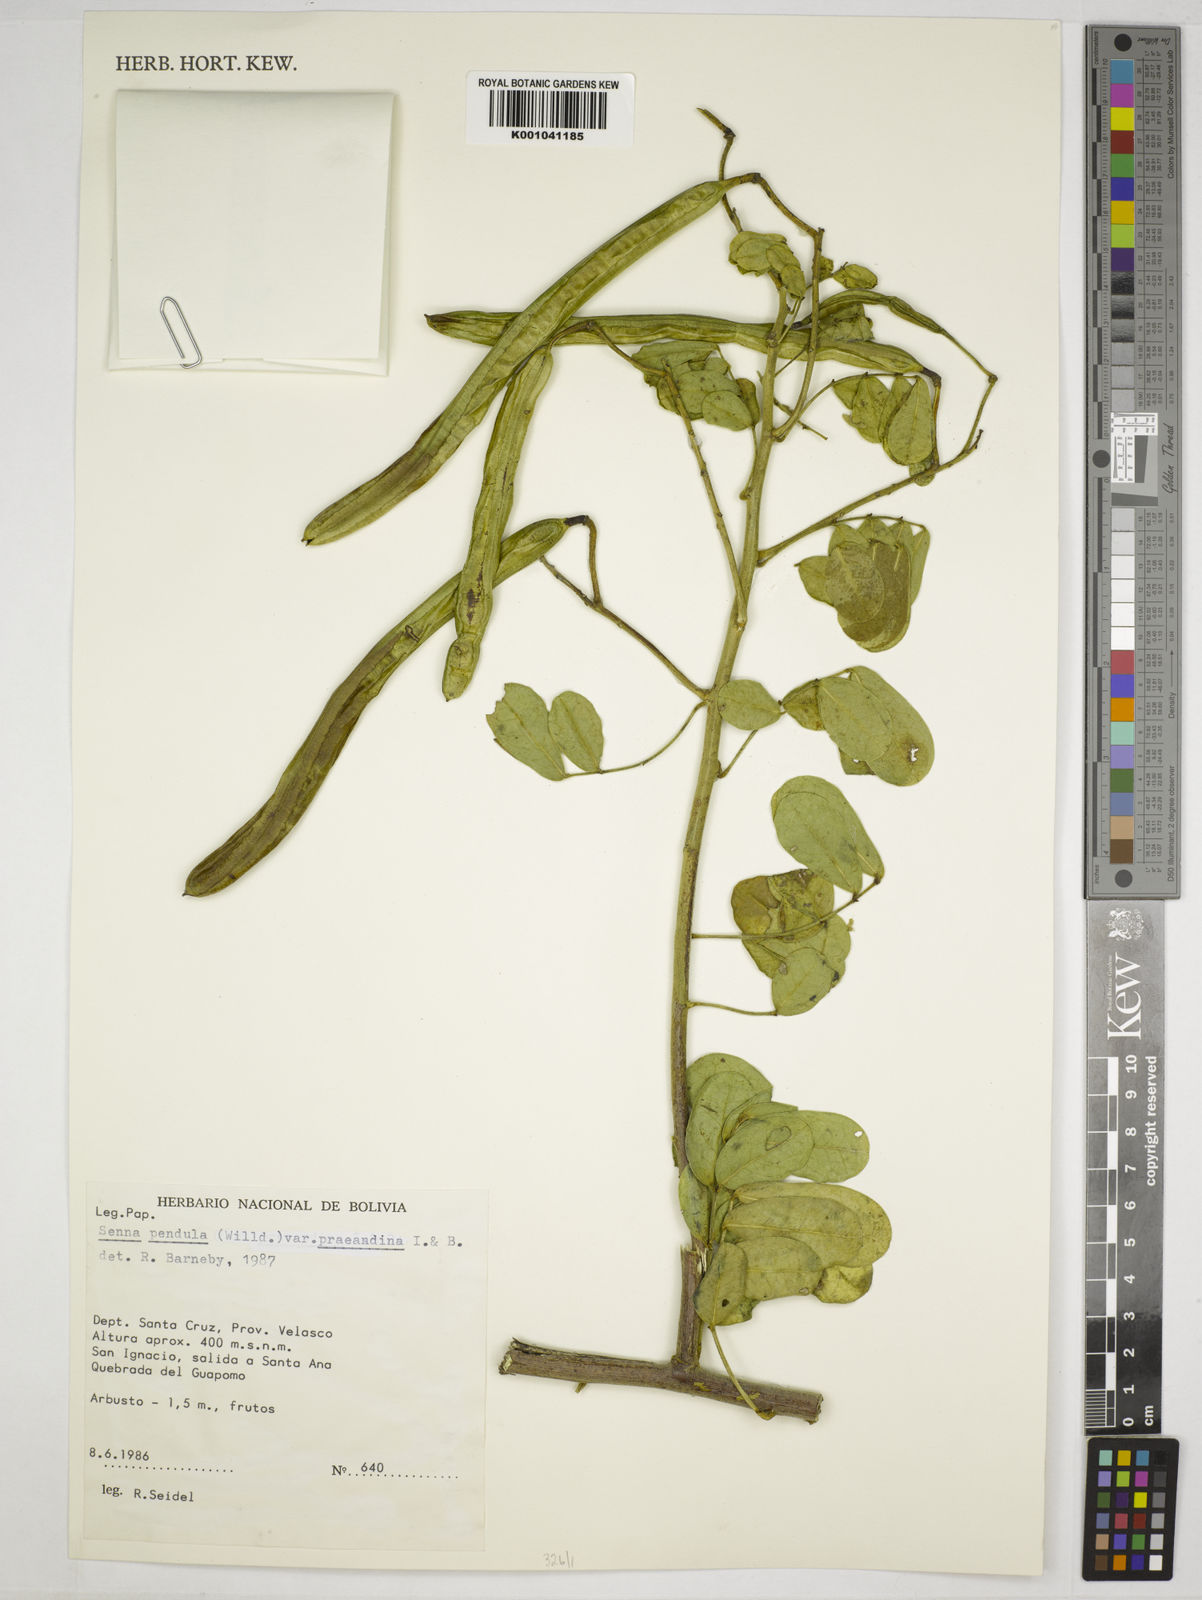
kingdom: Plantae
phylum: Tracheophyta
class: Magnoliopsida
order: Fabales
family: Fabaceae
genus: Senna
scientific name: Senna pendula
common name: Easter cassia
